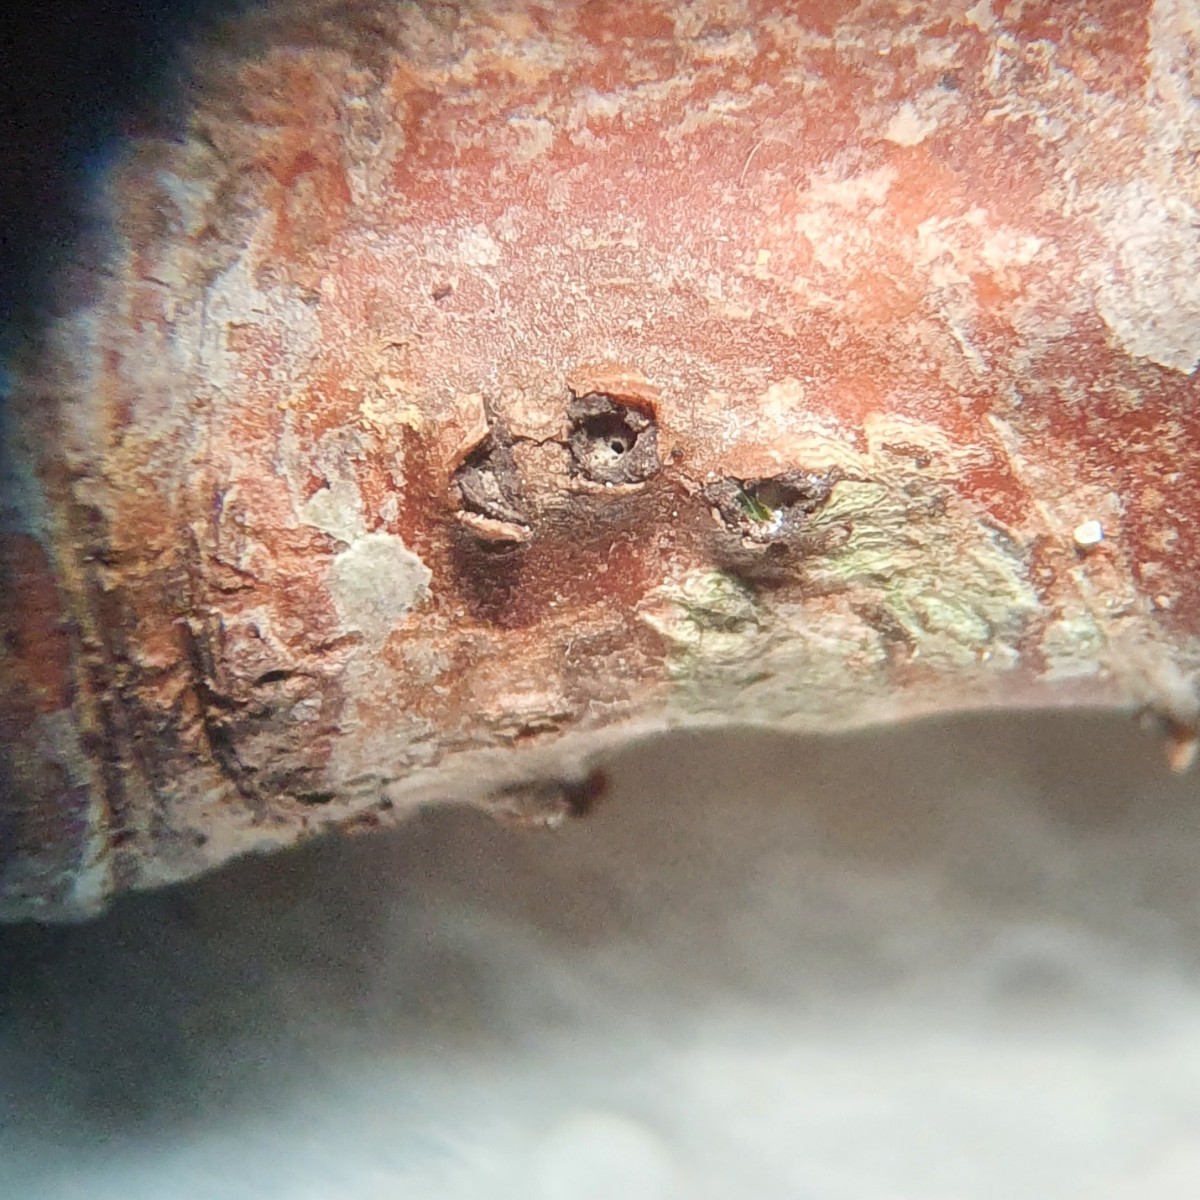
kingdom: Fungi
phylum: Ascomycota
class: Sordariomycetes
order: Diaporthales
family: Gnomoniaceae
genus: Plagiostoma
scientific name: Plagiostoma populinum
